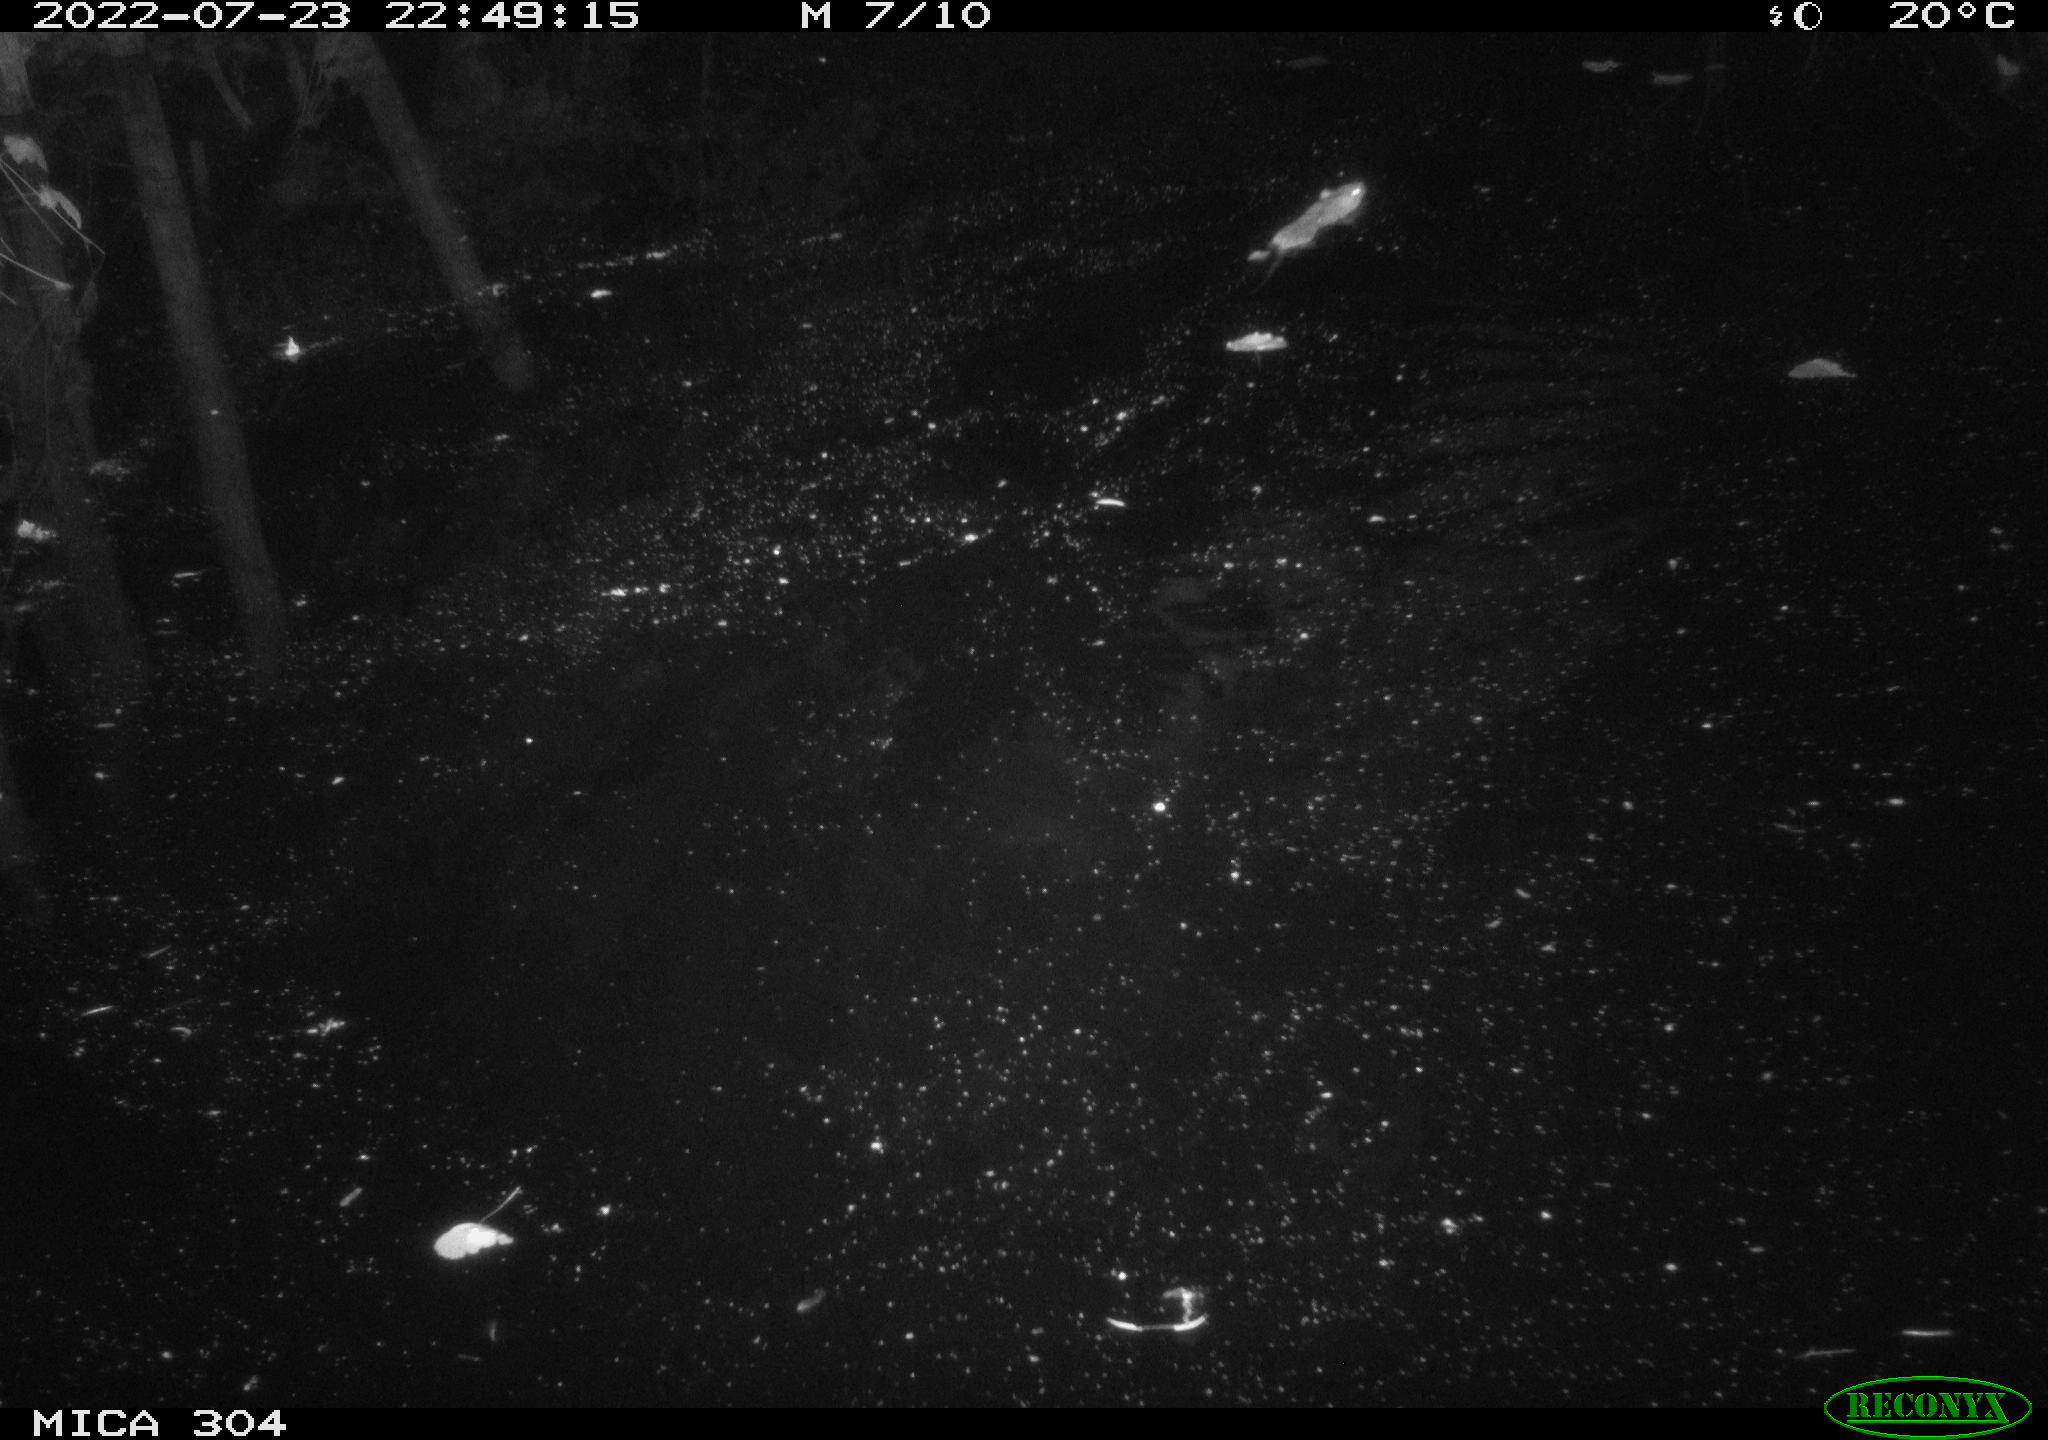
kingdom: Animalia
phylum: Chordata
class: Mammalia
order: Rodentia
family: Muridae
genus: Rattus
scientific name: Rattus norvegicus
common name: Brown rat
